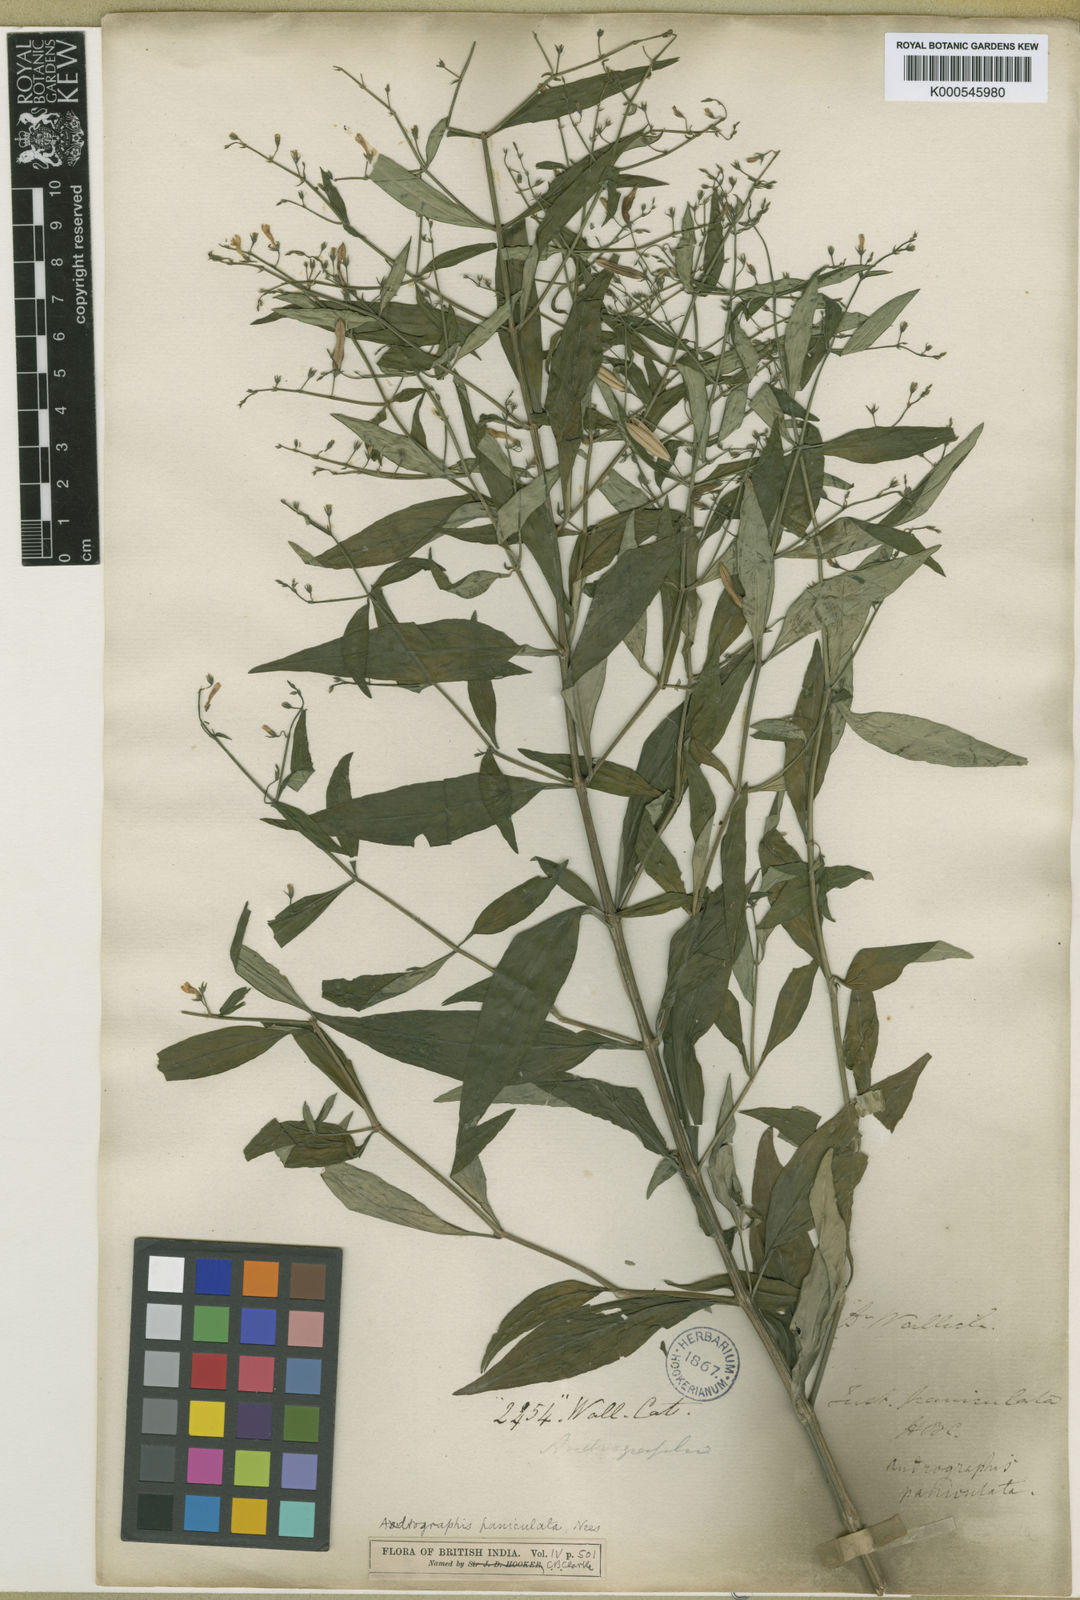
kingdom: Plantae
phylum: Tracheophyta
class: Magnoliopsida
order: Lamiales
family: Acanthaceae
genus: Andrographis
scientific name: Andrographis paniculata
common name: Green chireta
